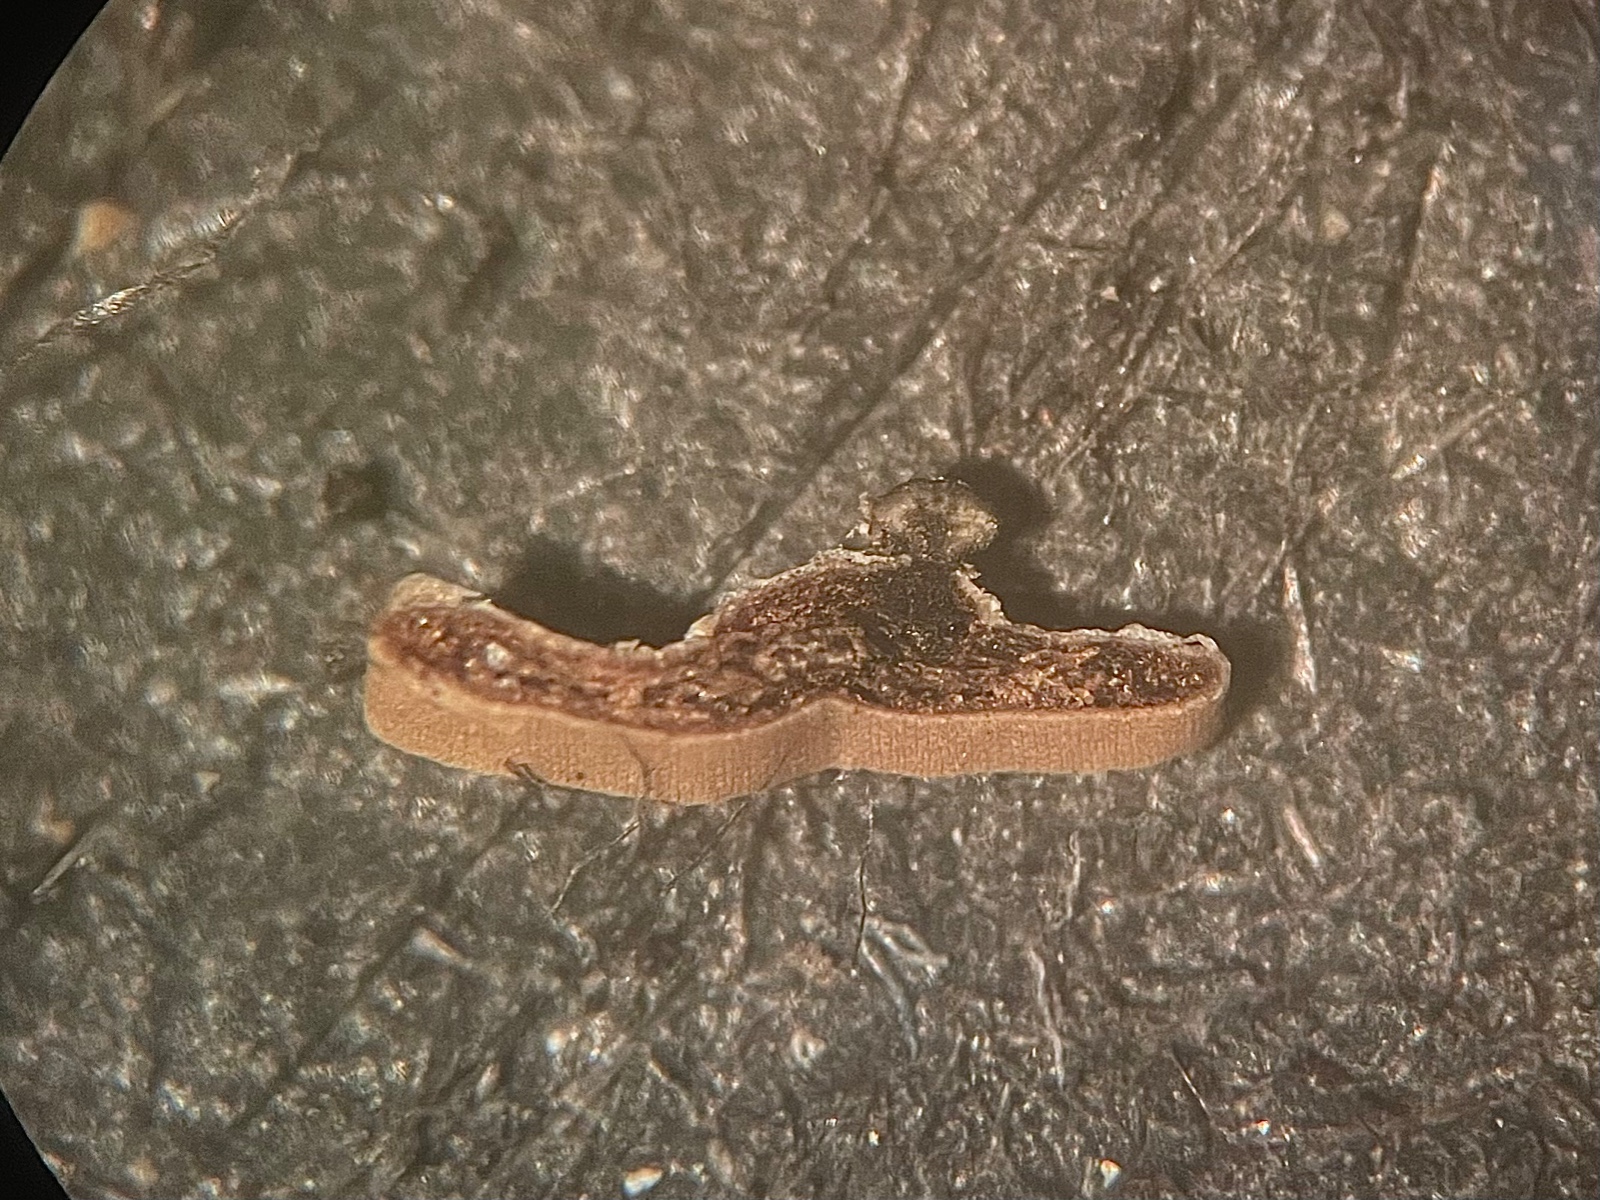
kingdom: Fungi
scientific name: Fungi
